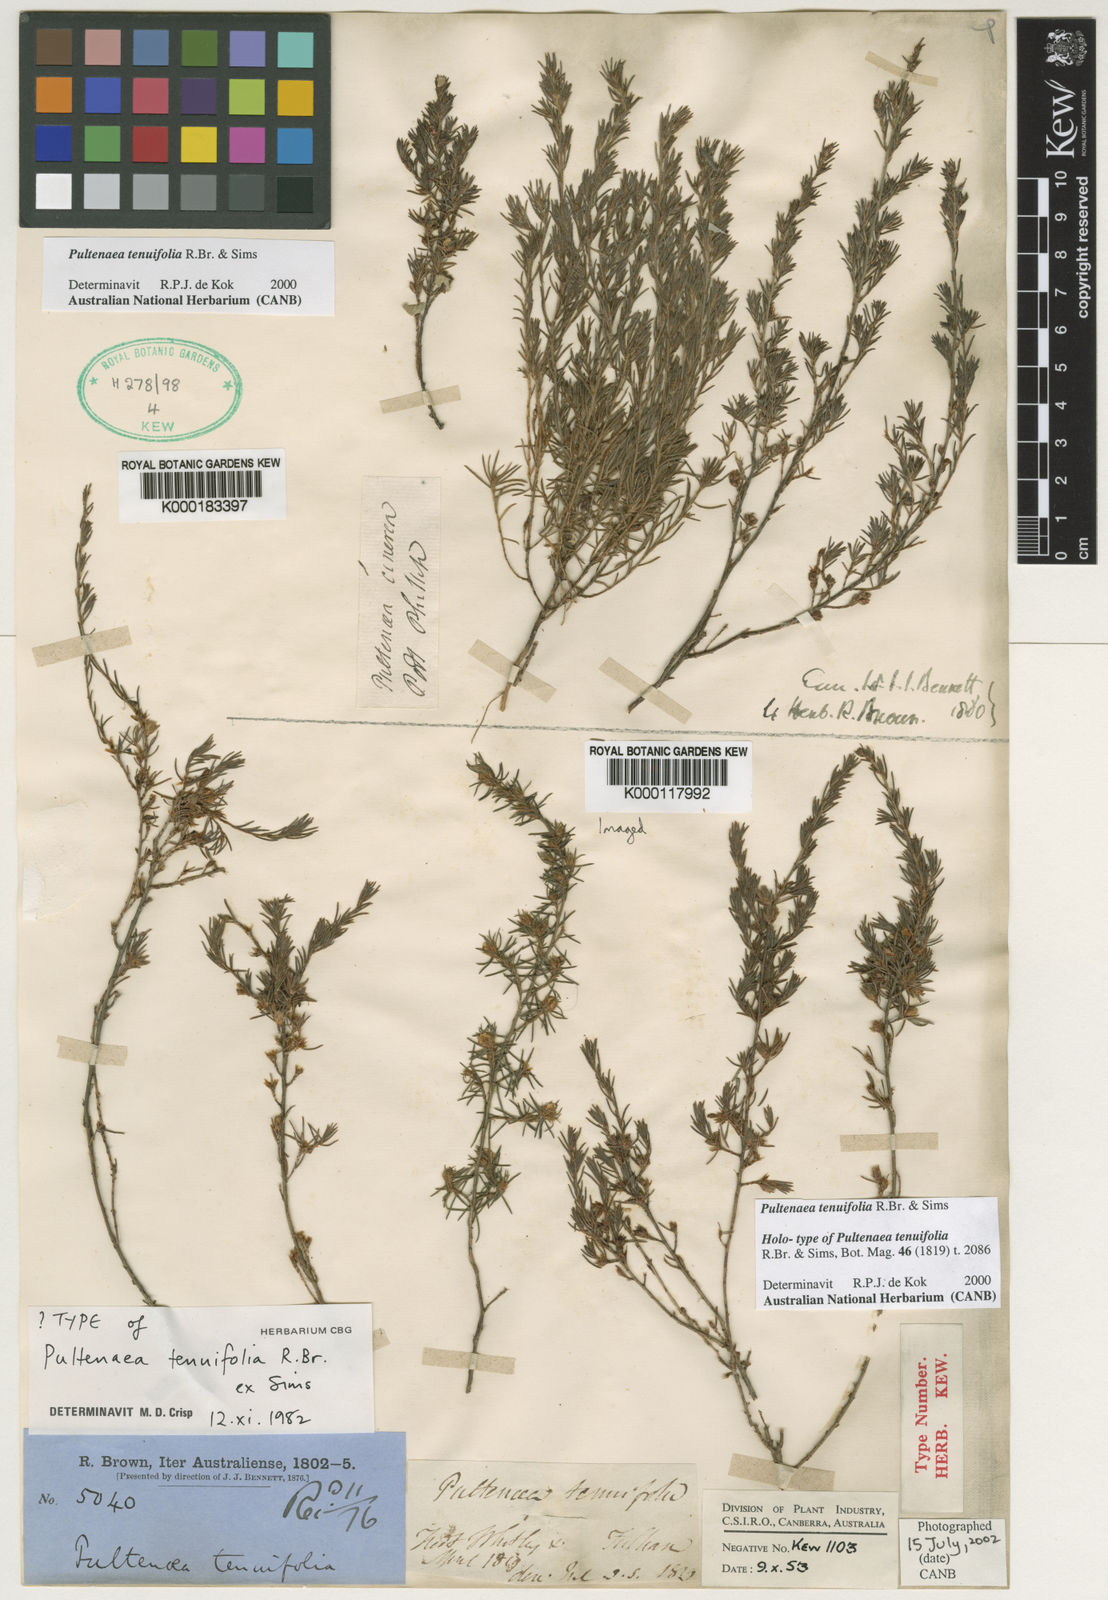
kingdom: Plantae
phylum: Tracheophyta
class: Magnoliopsida
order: Fabales
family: Fabaceae
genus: Pultenaea
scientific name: Pultenaea tenuifolia
